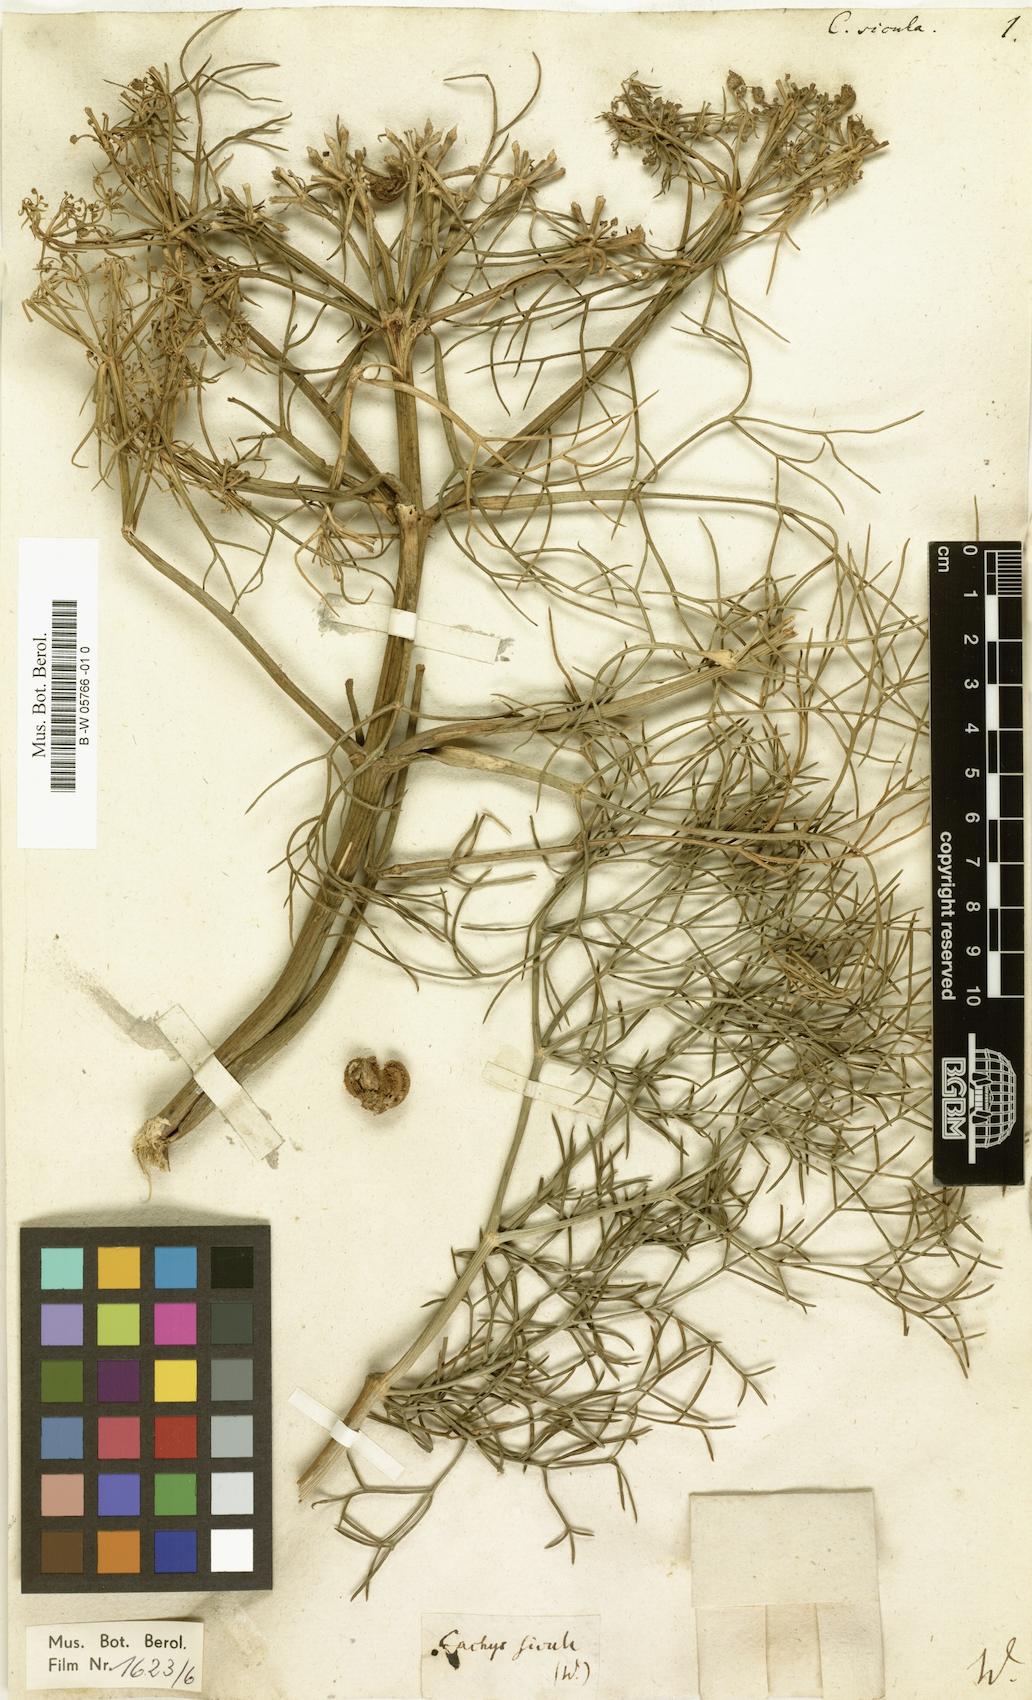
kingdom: Plantae
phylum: Tracheophyta
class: Magnoliopsida
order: Apiales
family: Apiaceae
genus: Cachrys
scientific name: Cachrys sicula
